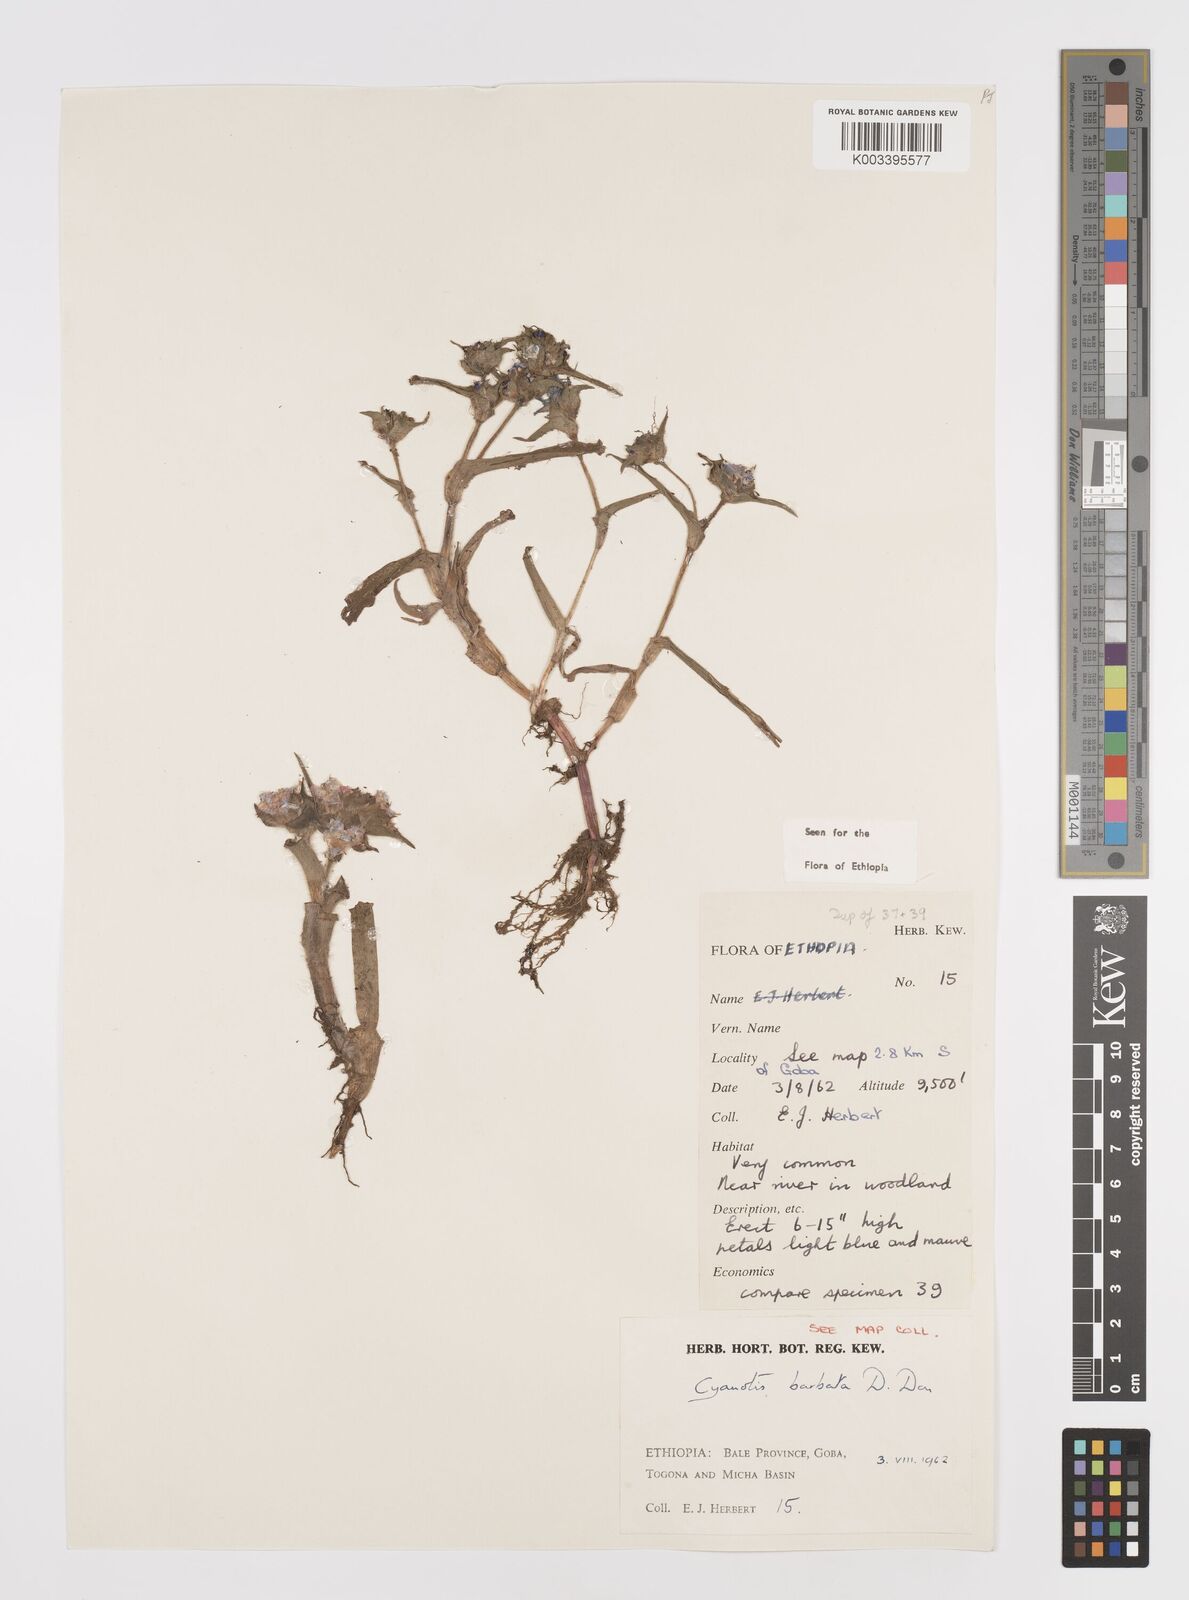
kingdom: Plantae
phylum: Tracheophyta
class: Liliopsida
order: Commelinales
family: Commelinaceae
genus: Cyanotis
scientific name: Cyanotis vaga
